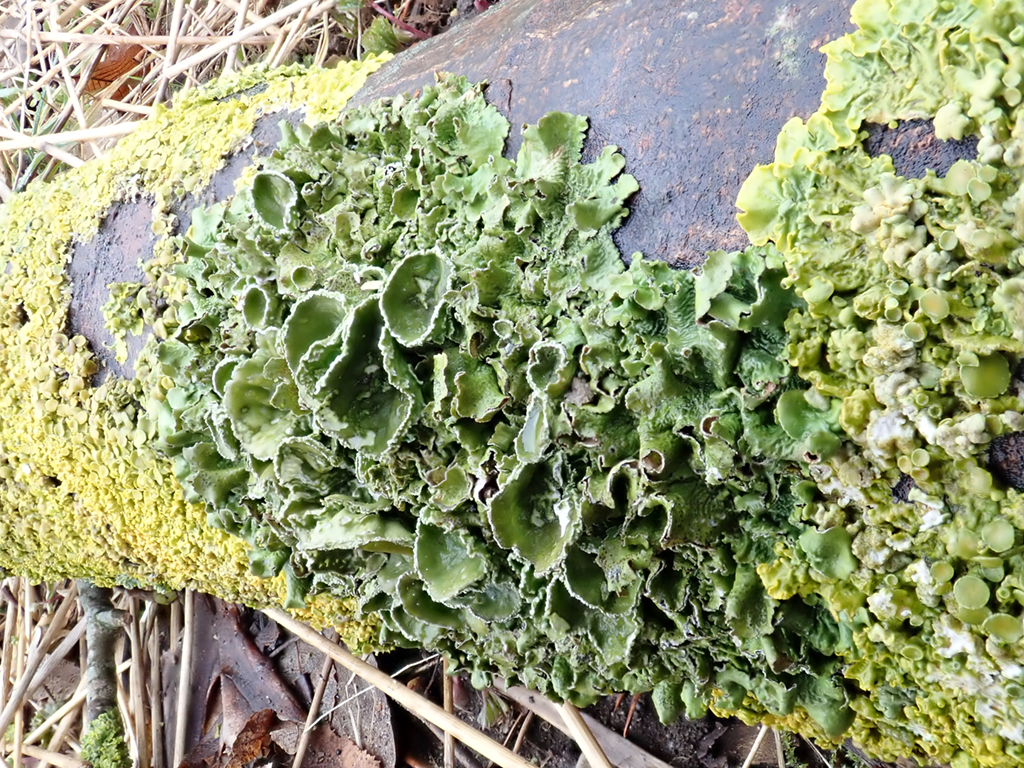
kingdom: Fungi
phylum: Ascomycota
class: Lecanoromycetes
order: Lecanorales
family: Parmeliaceae
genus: Pleurosticta
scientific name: Pleurosticta acetabulum
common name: stor skållav
